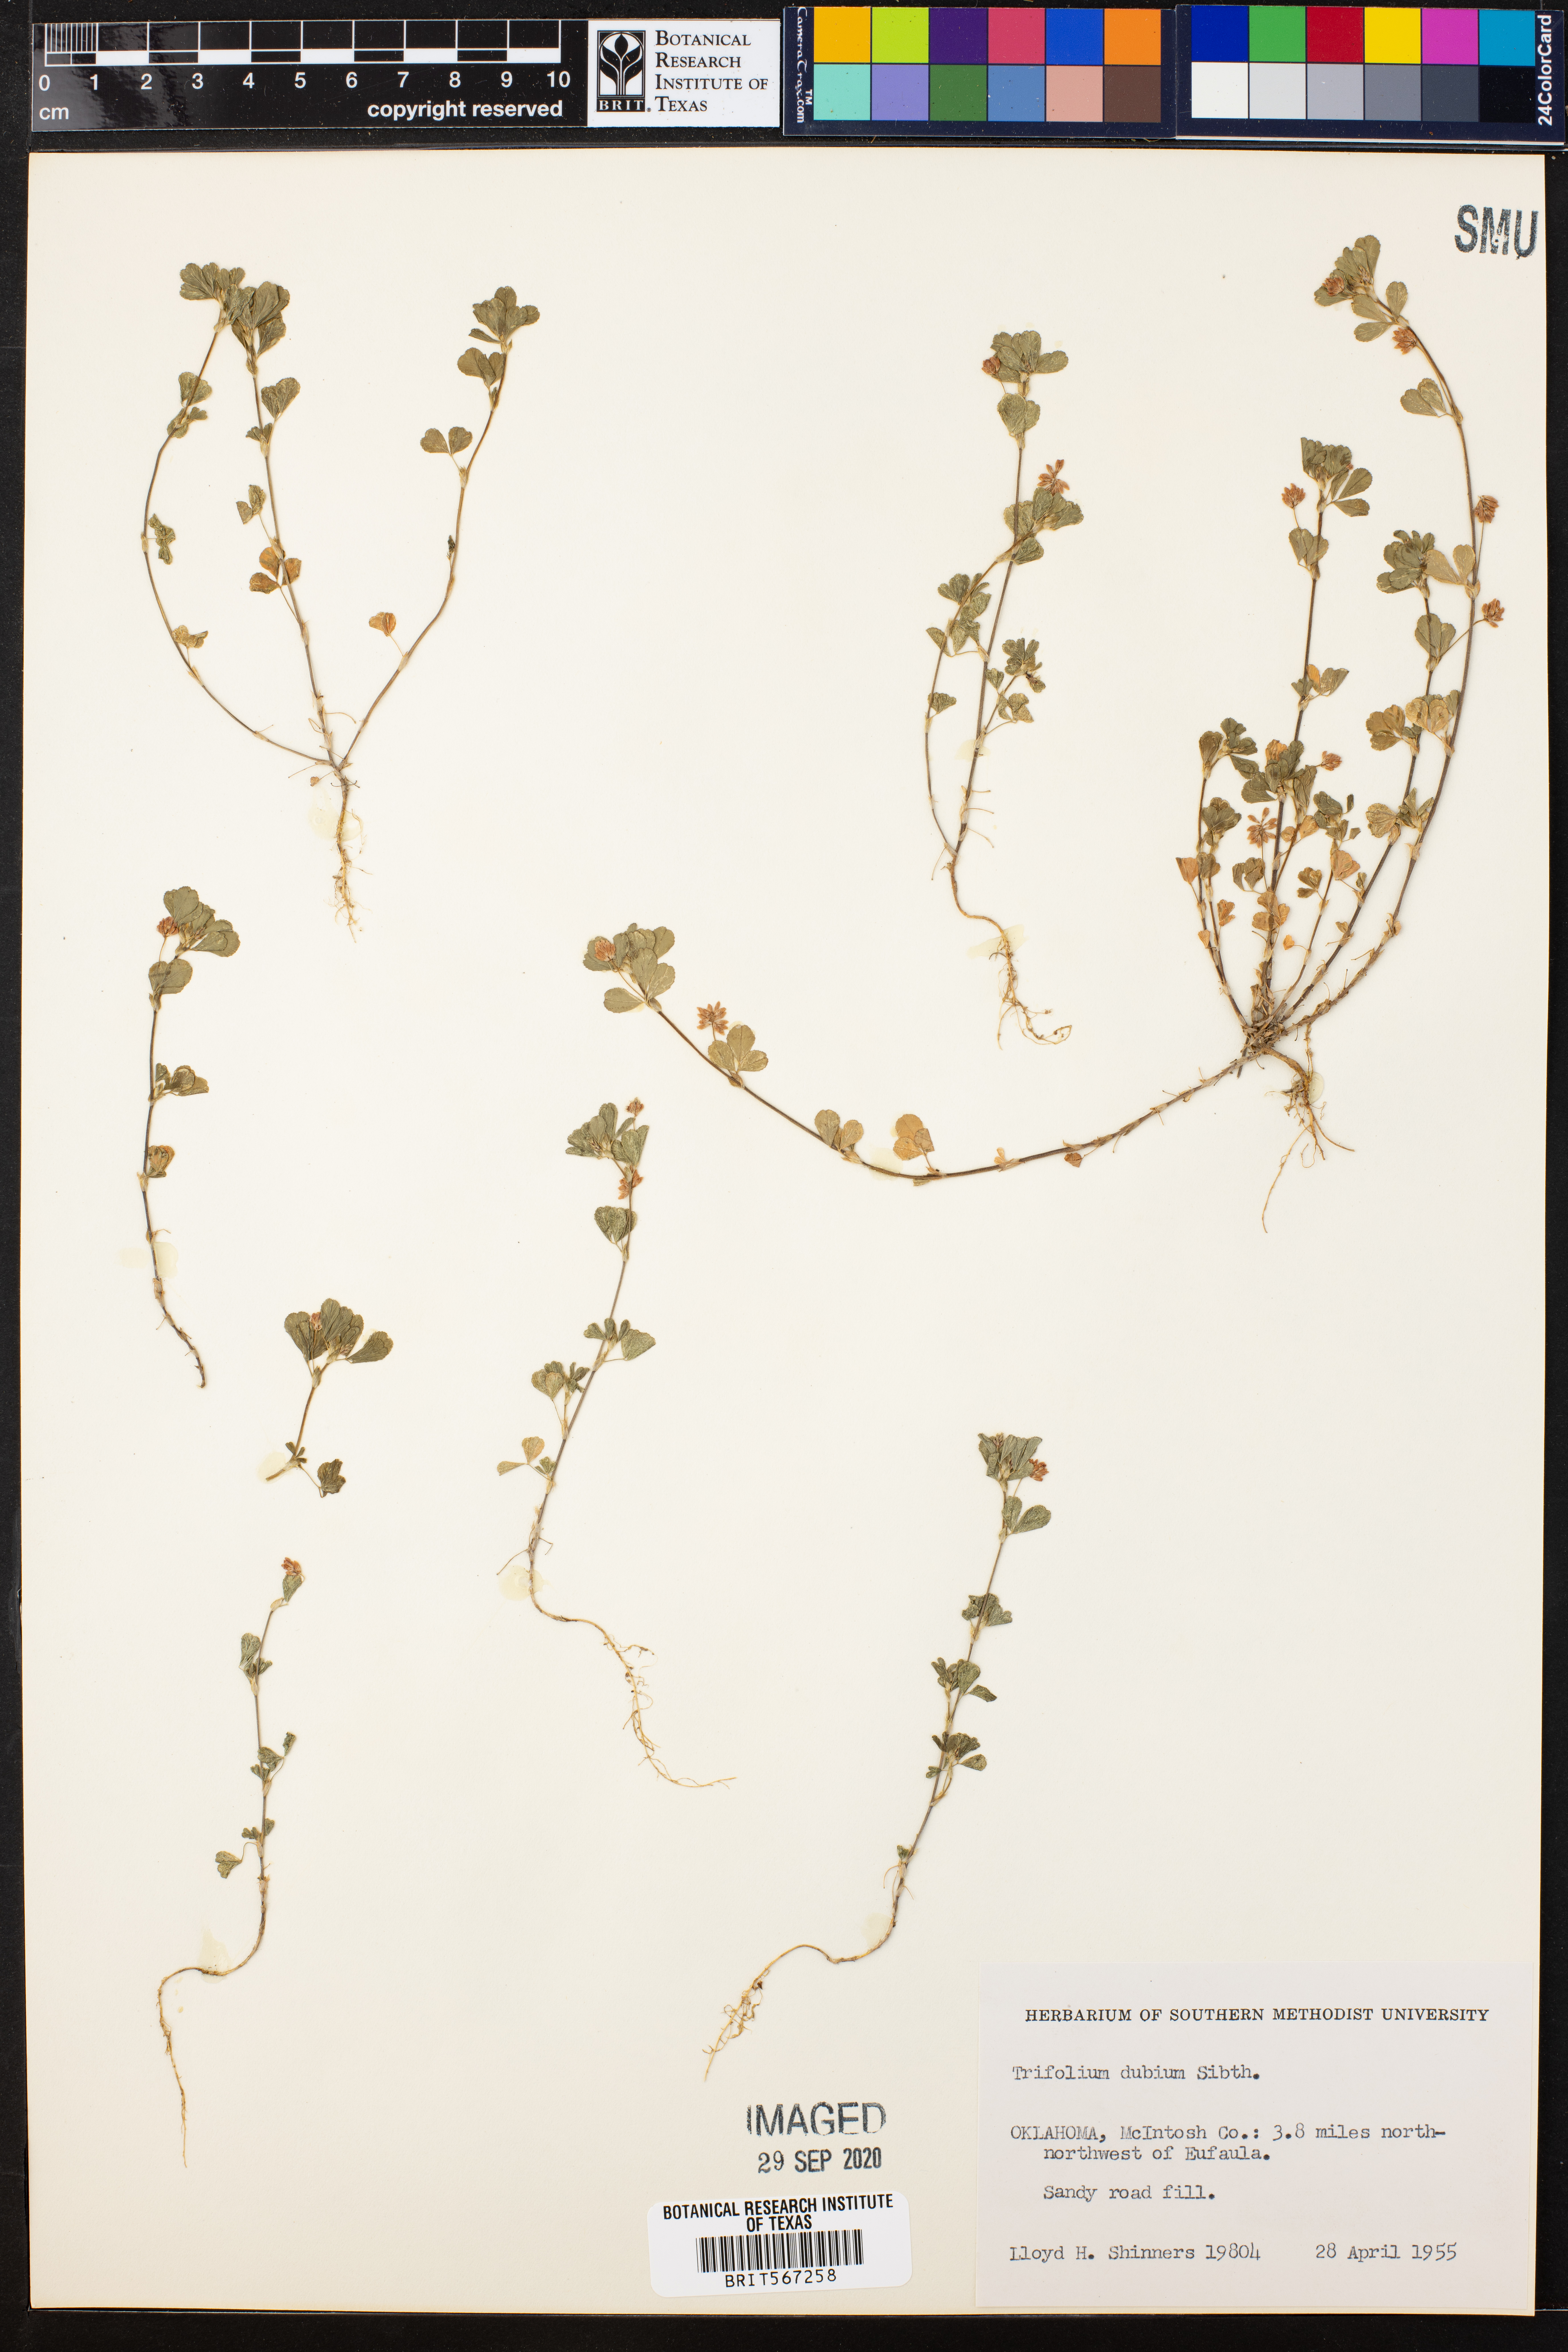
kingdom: Plantae
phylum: Tracheophyta
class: Magnoliopsida
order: Fabales
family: Fabaceae
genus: Trifolium
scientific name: Trifolium dubium
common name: Suckling clover
